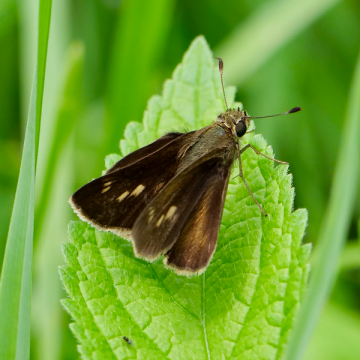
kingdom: Animalia
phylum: Arthropoda
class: Insecta
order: Lepidoptera
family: Hesperiidae
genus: Polites
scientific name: Polites egeremet
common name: Northern Broken-Dash
